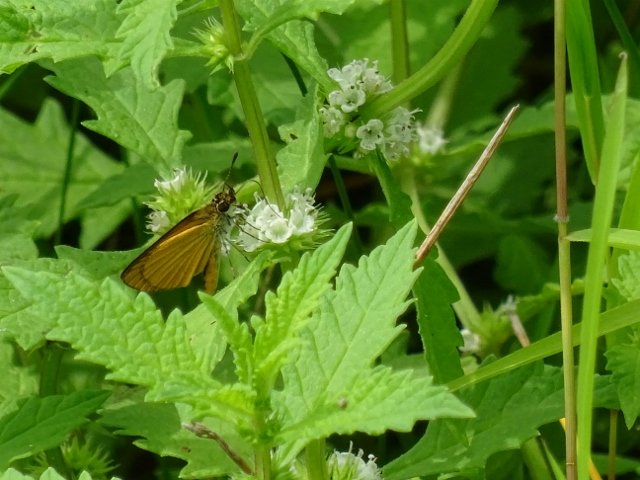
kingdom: Animalia
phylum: Arthropoda
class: Insecta
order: Lepidoptera
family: Hesperiidae
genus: Ancyloxypha
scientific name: Ancyloxypha numitor
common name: Least Skipper
